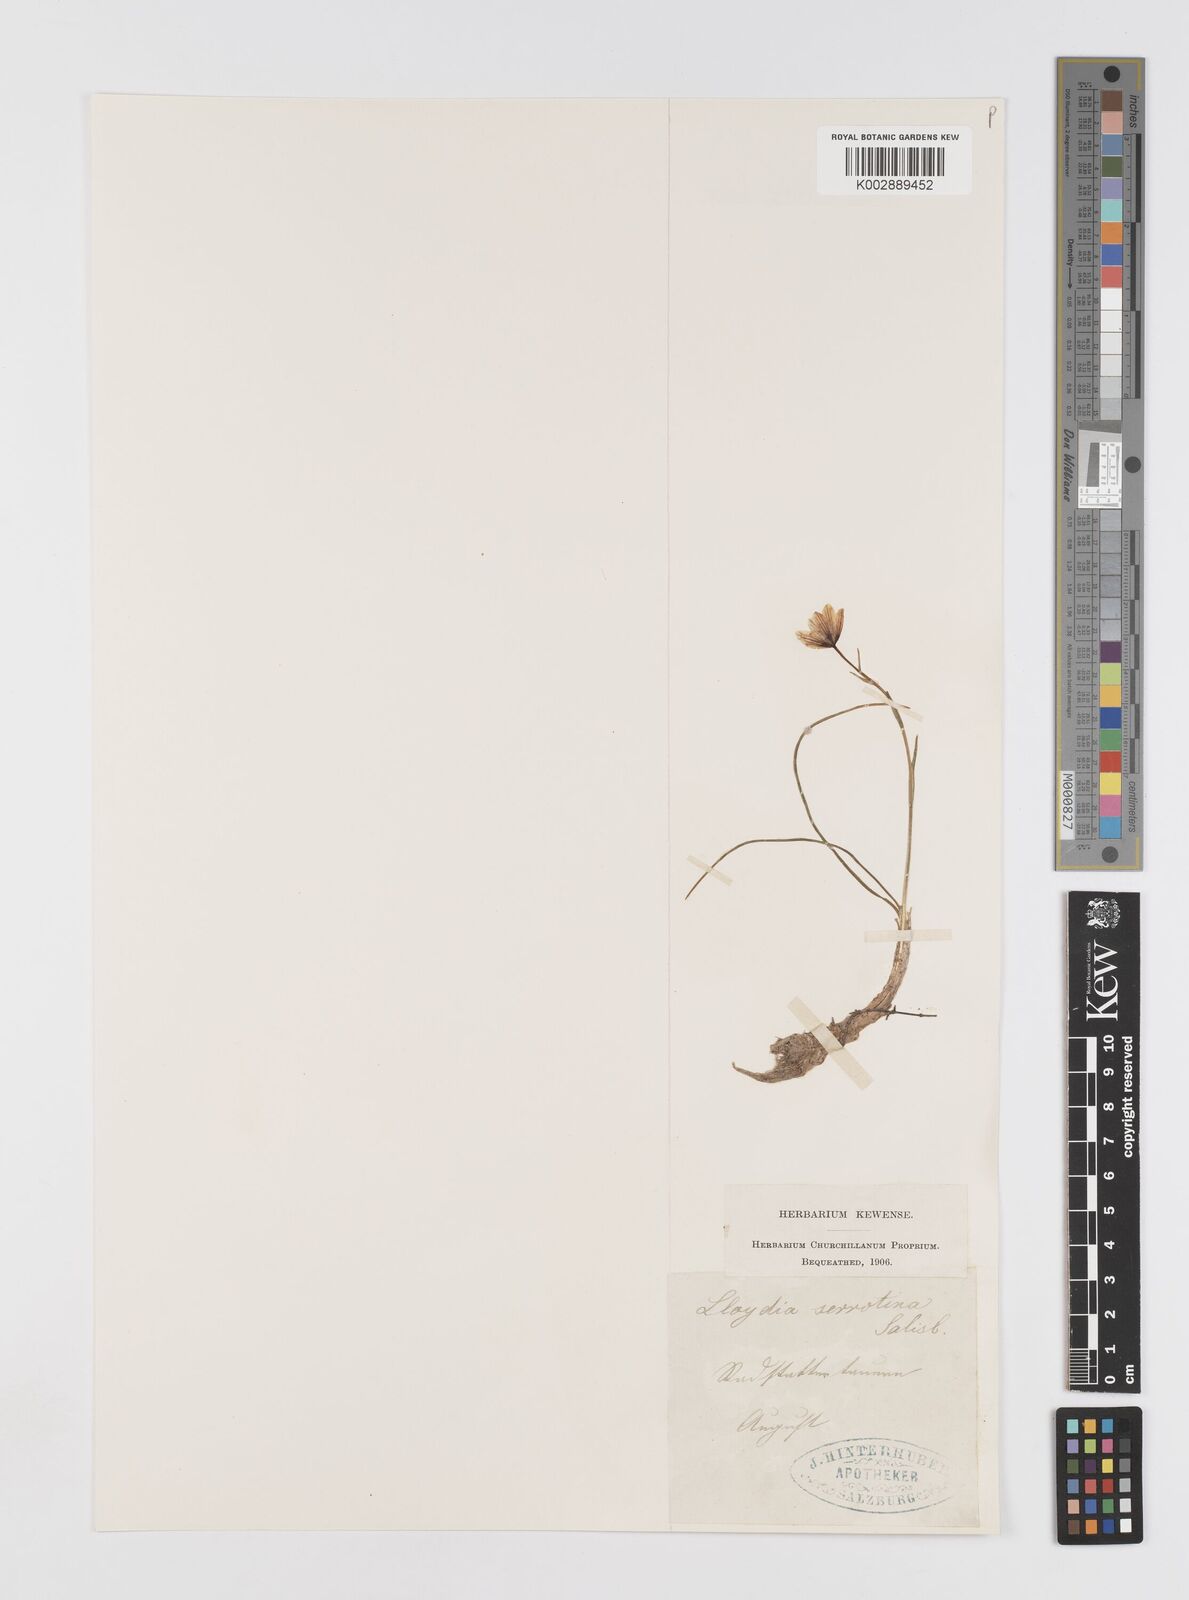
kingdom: Plantae
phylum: Tracheophyta
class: Liliopsida
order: Liliales
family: Liliaceae
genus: Gagea
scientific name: Gagea
